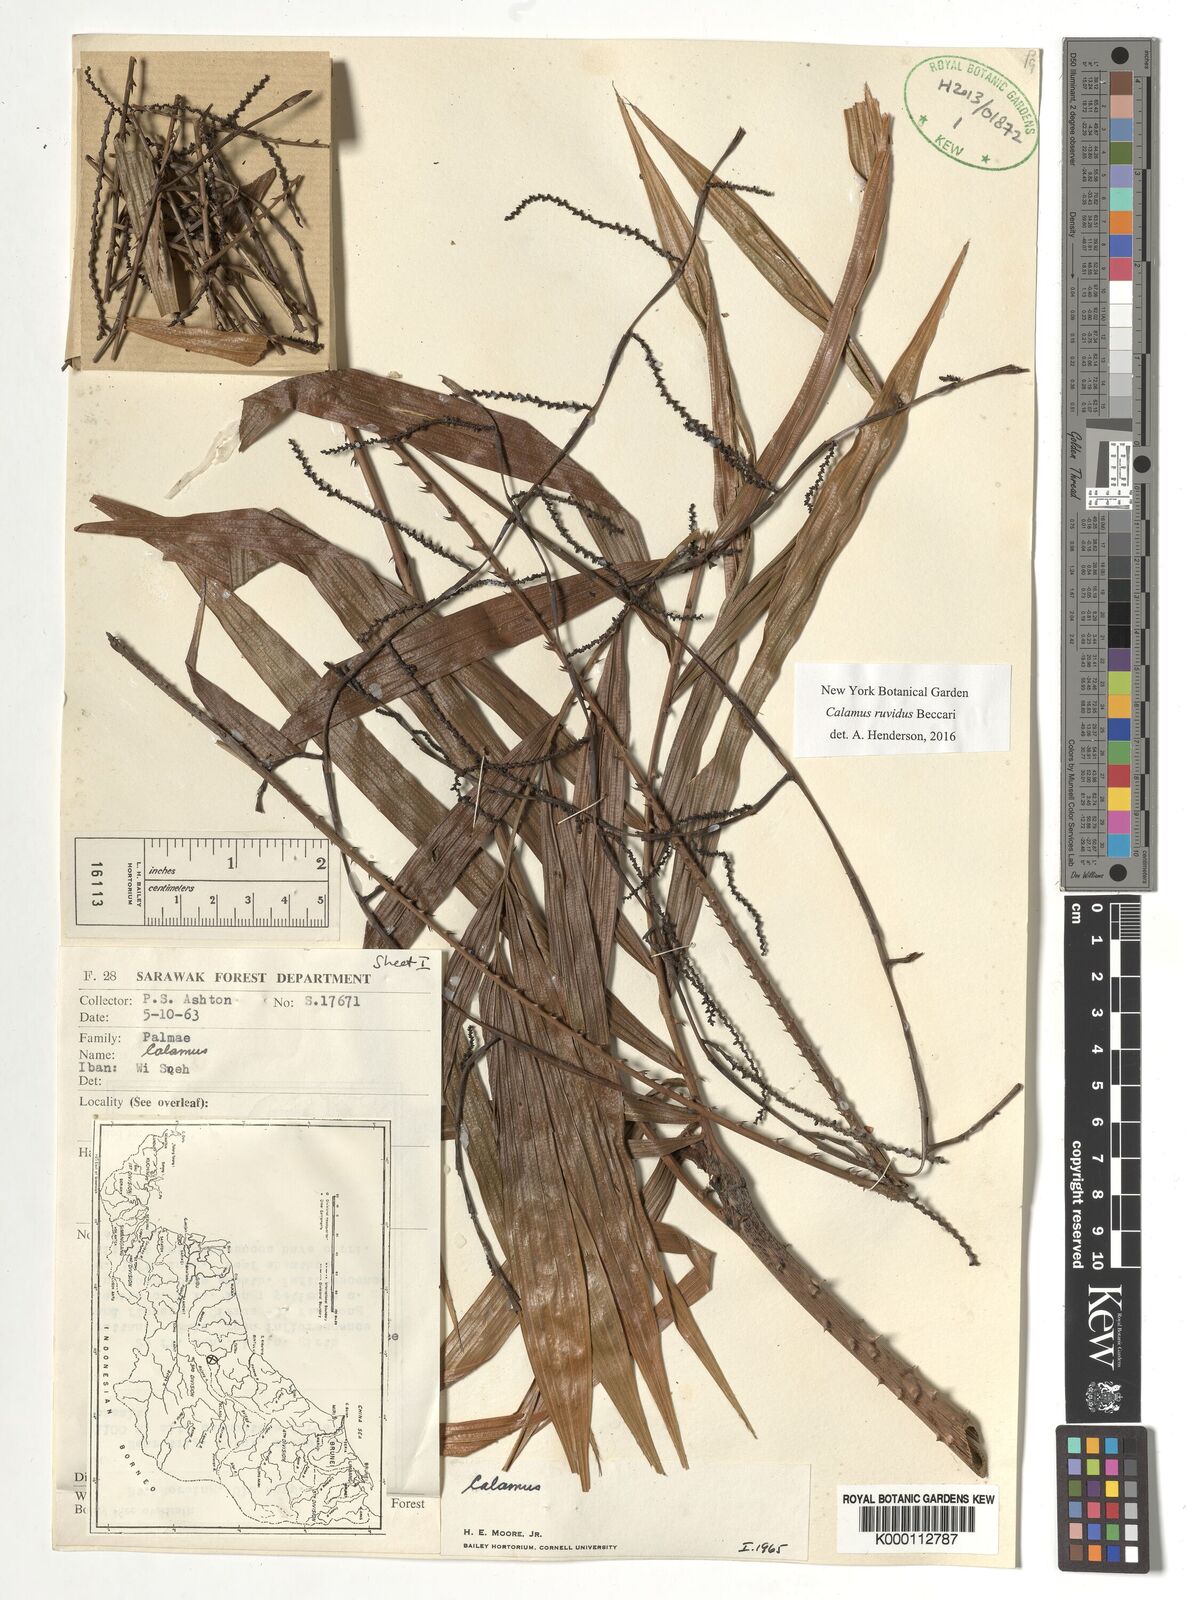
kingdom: Plantae
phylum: Tracheophyta
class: Liliopsida
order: Arecales
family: Arecaceae
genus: Calamus
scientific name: Calamus ruvidus
